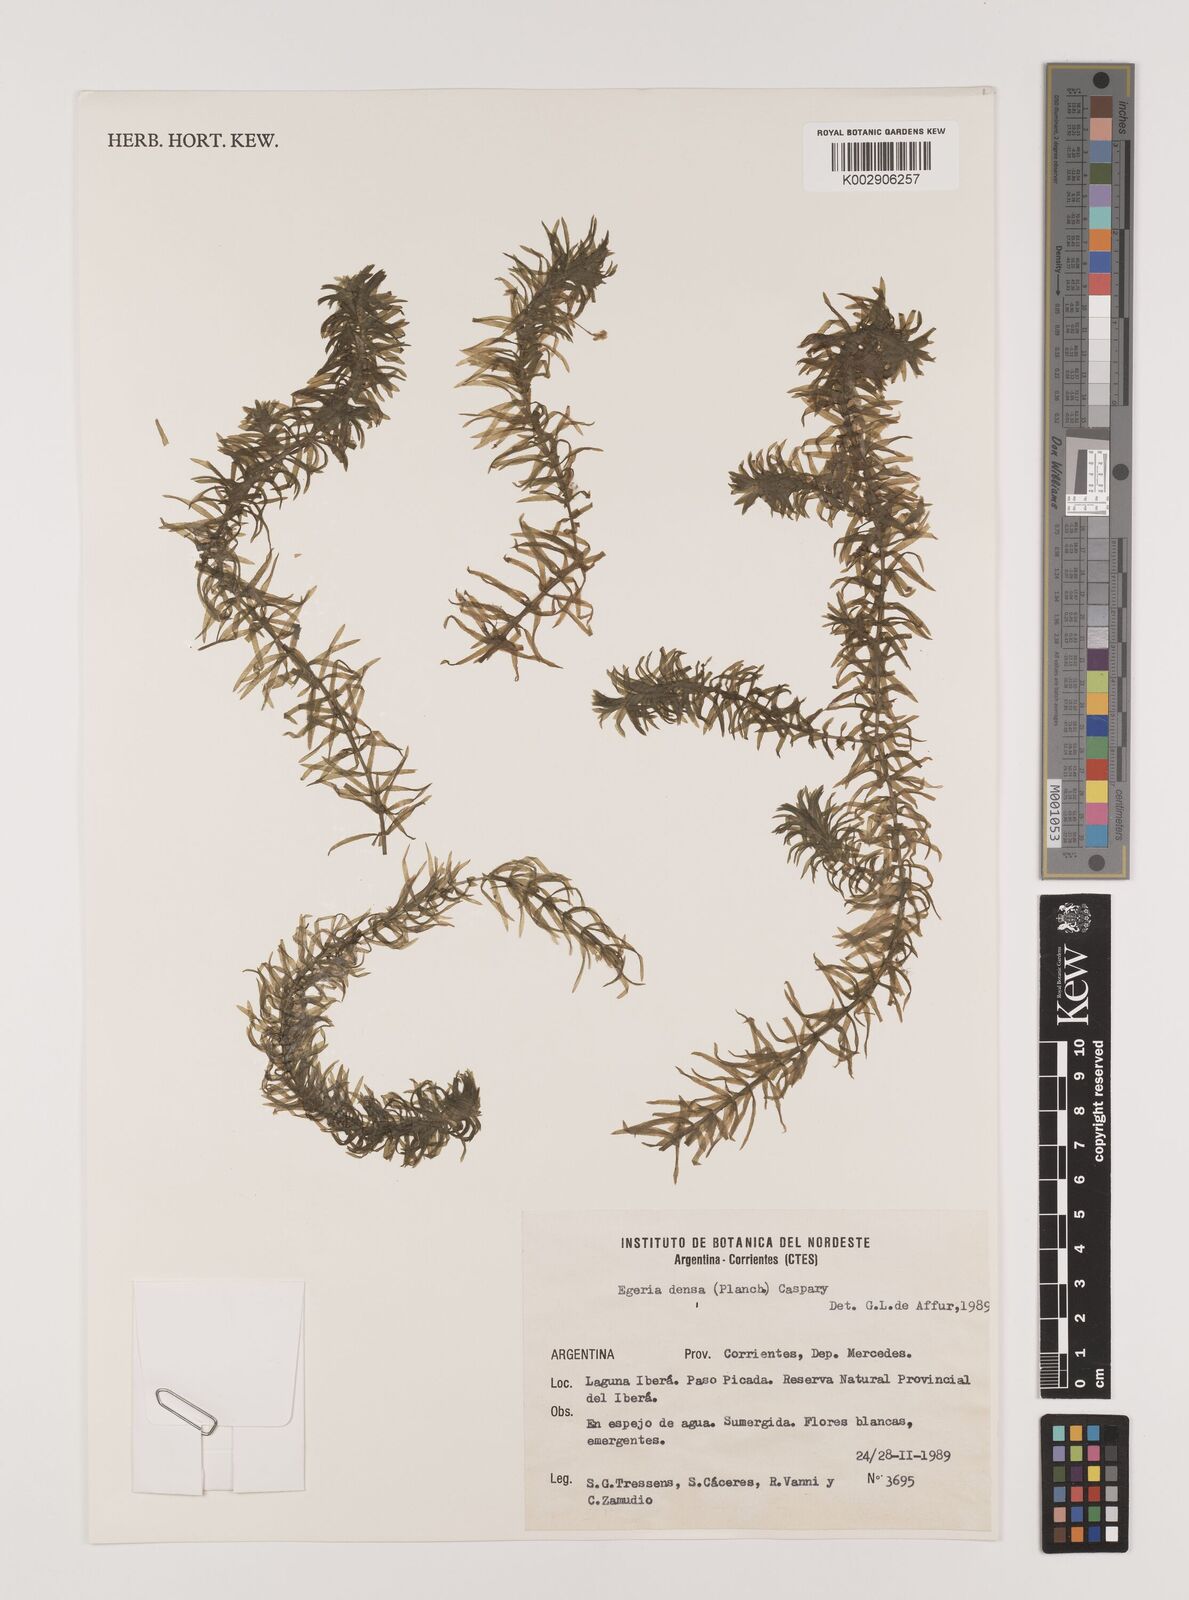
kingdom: Plantae
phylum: Tracheophyta
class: Liliopsida
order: Alismatales
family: Hydrocharitaceae
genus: Elodea
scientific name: Elodea densa
